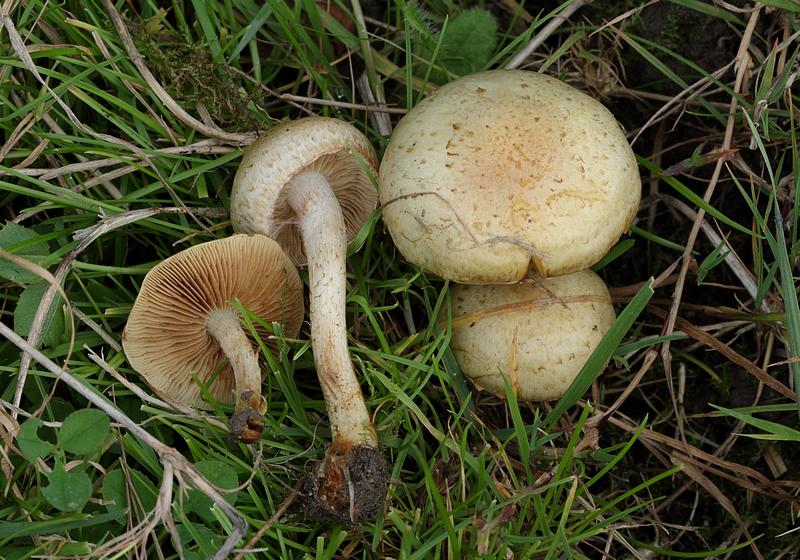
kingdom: Fungi
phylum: Basidiomycota
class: Agaricomycetes
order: Agaricales
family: Strophariaceae
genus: Pholiota
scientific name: Pholiota gummosa
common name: grøngul skælhat
